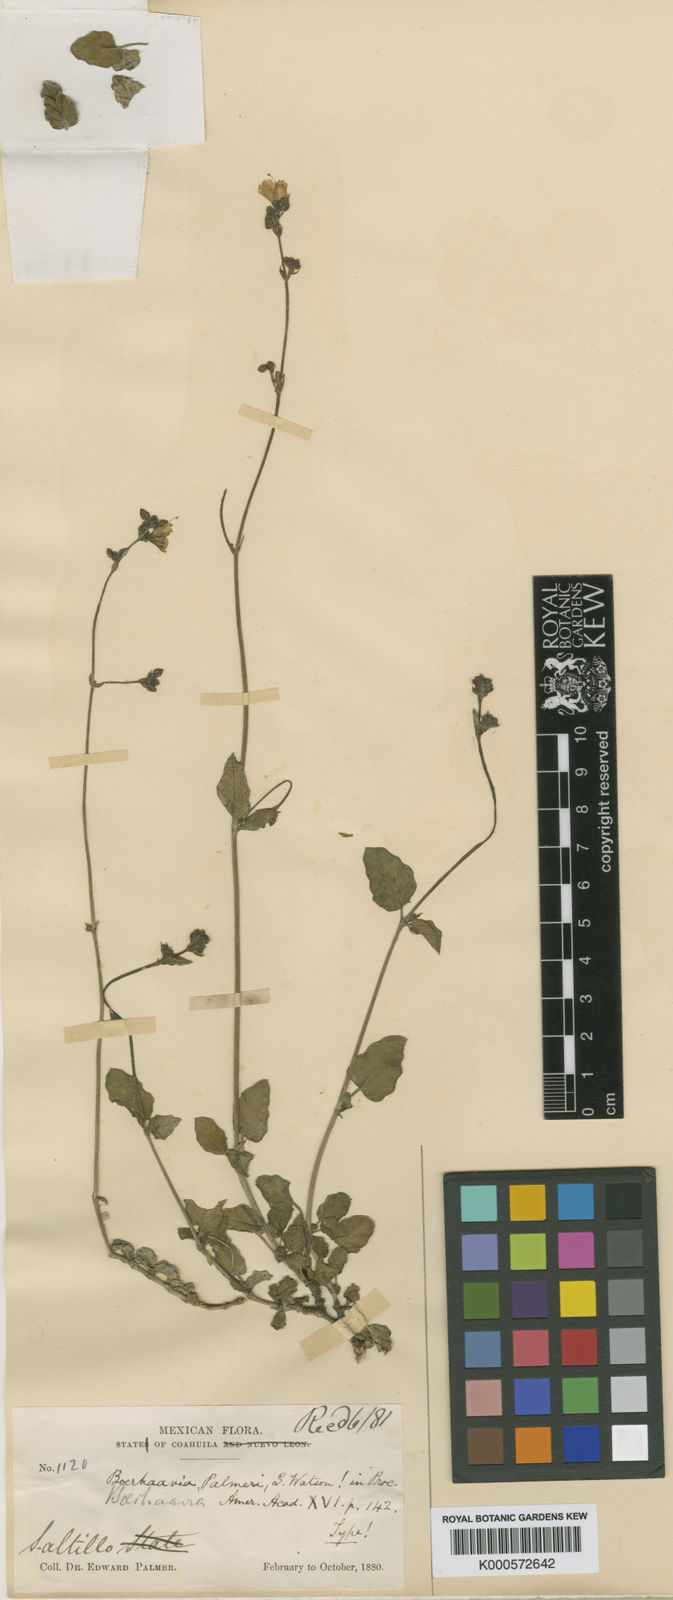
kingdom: Plantae
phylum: Tracheophyta
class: Magnoliopsida
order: Caryophyllales
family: Nyctaginaceae
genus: Boerhavia
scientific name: Boerhavia coulteri
